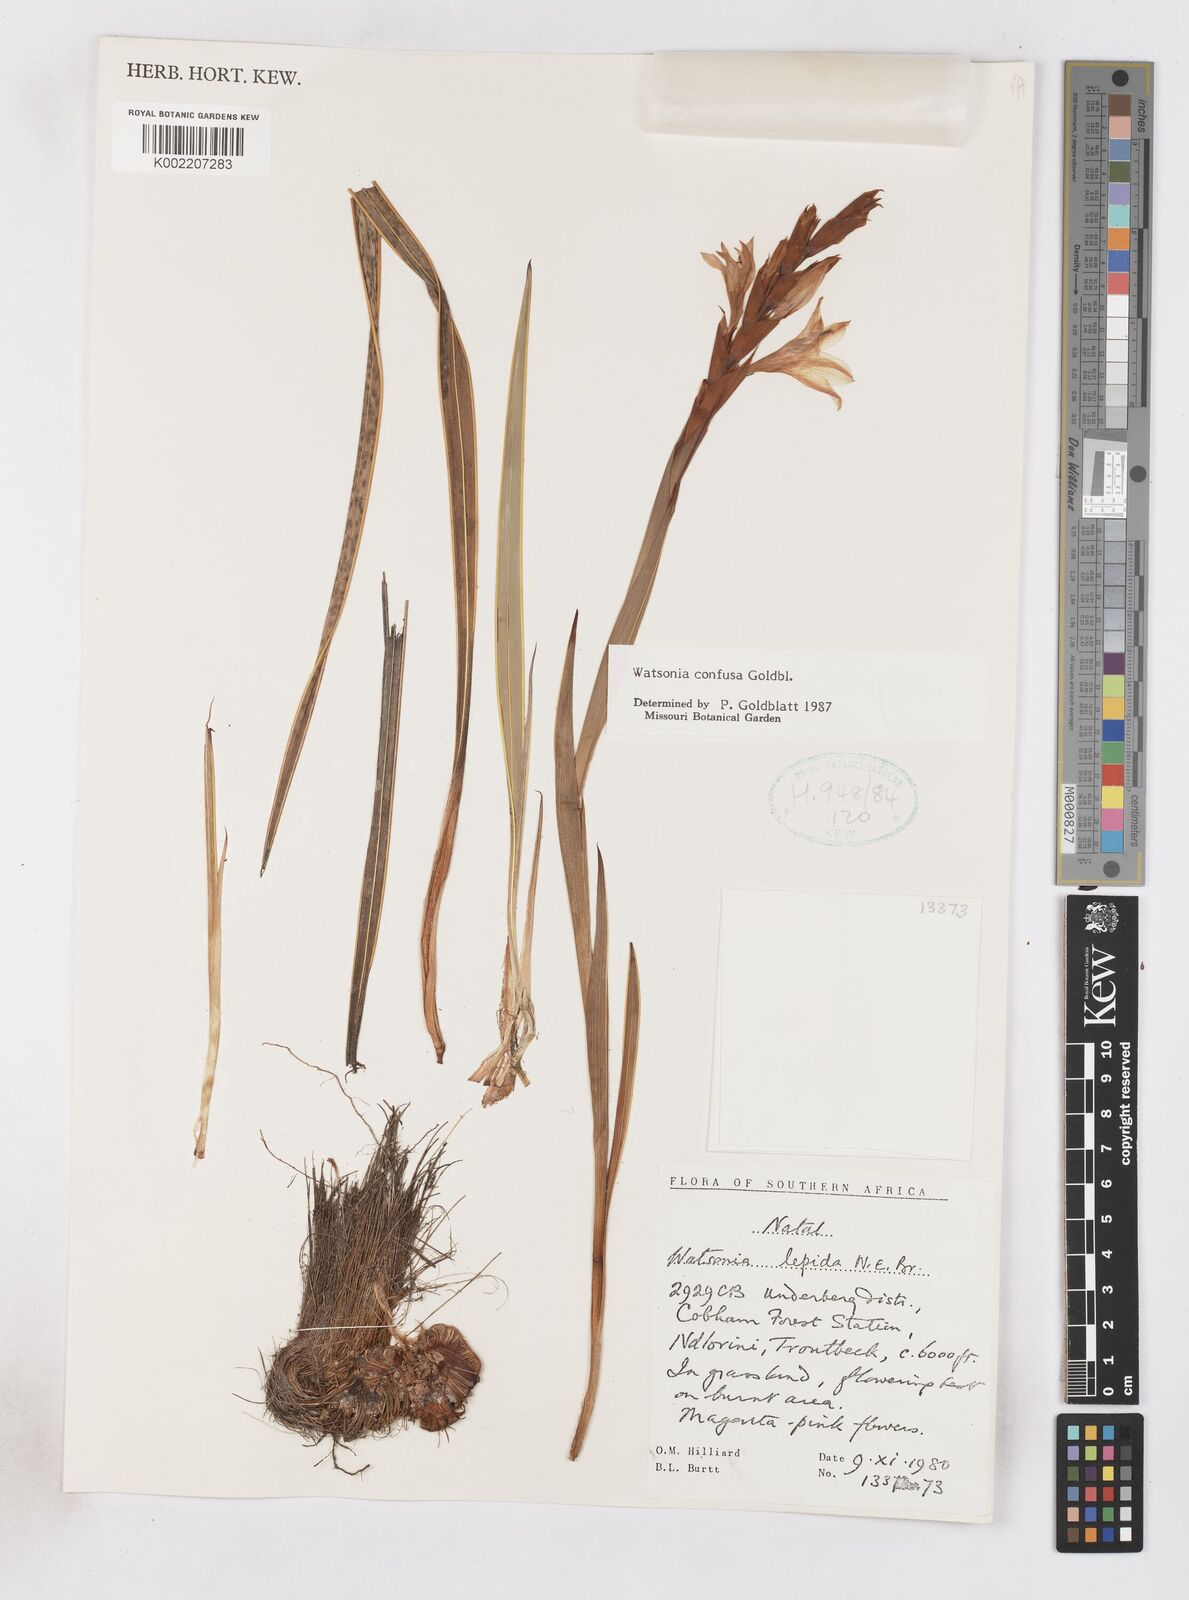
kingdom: Plantae
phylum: Tracheophyta
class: Liliopsida
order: Asparagales
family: Iridaceae
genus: Watsonia
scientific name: Watsonia confusa
